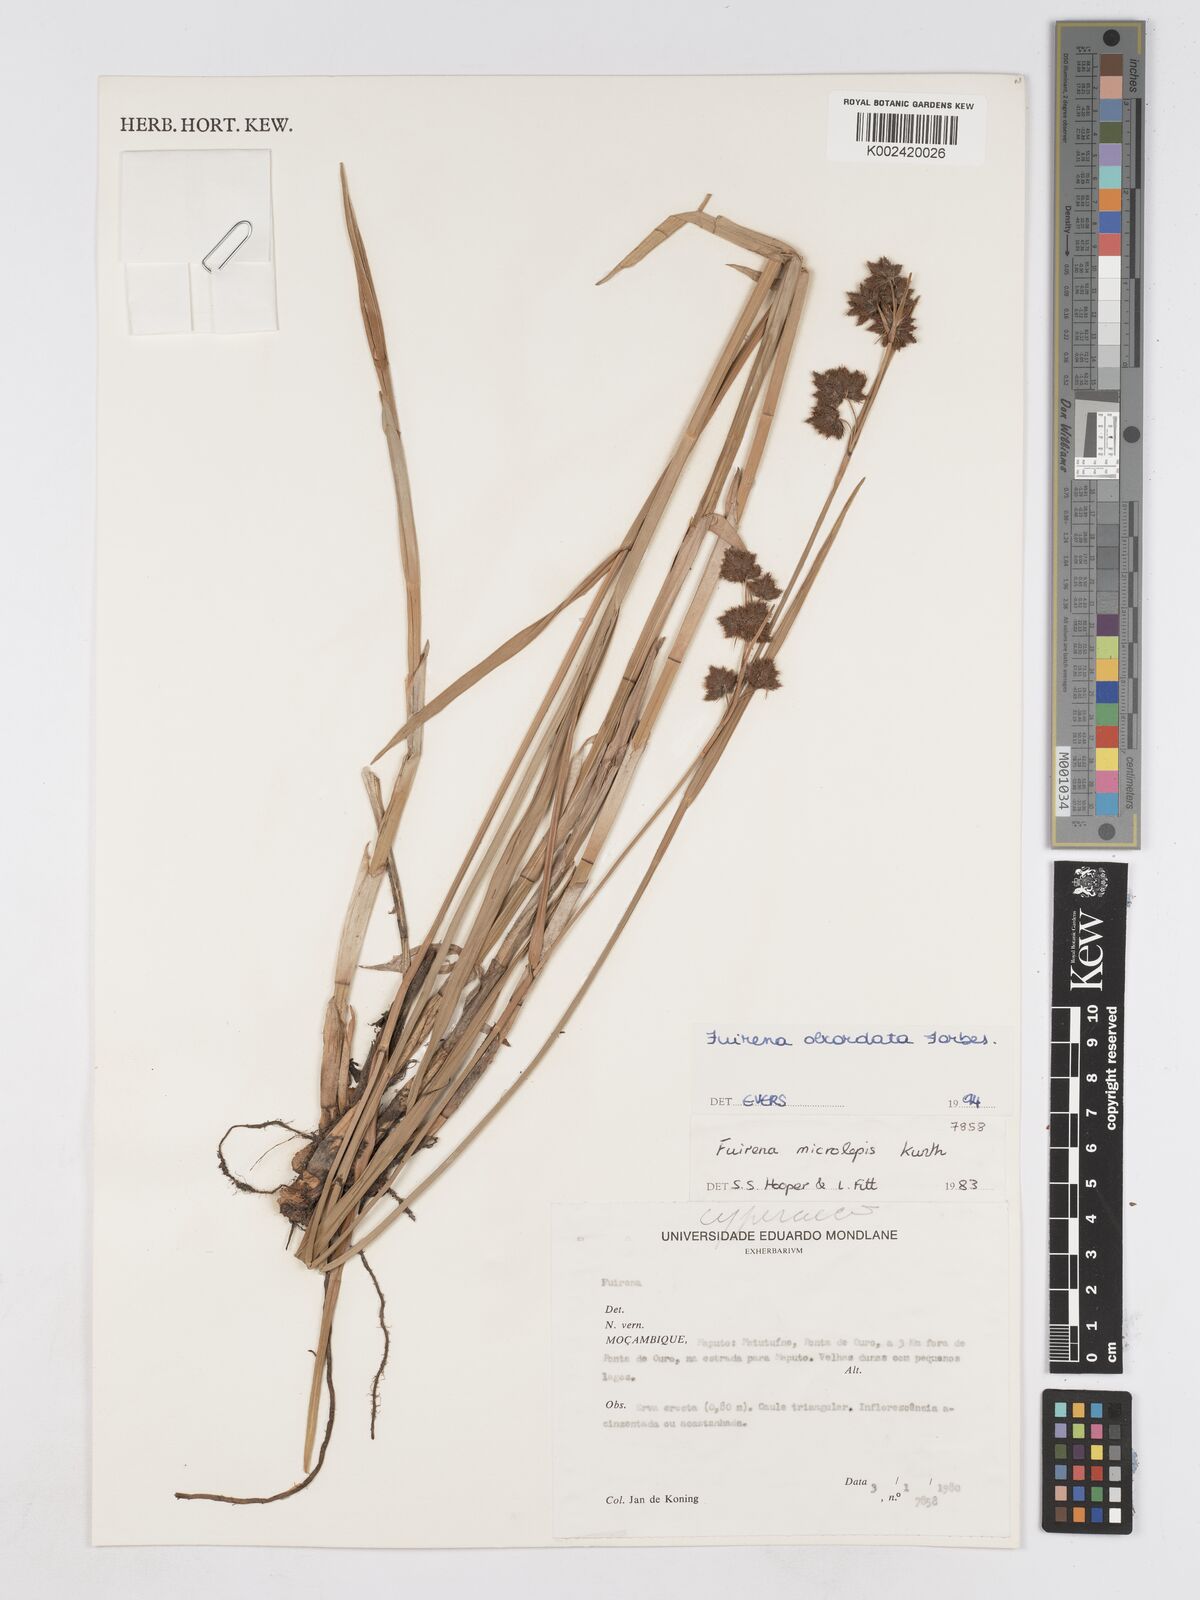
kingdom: Plantae
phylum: Tracheophyta
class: Liliopsida
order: Poales
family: Cyperaceae
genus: Fuirena
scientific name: Fuirena obcordata
